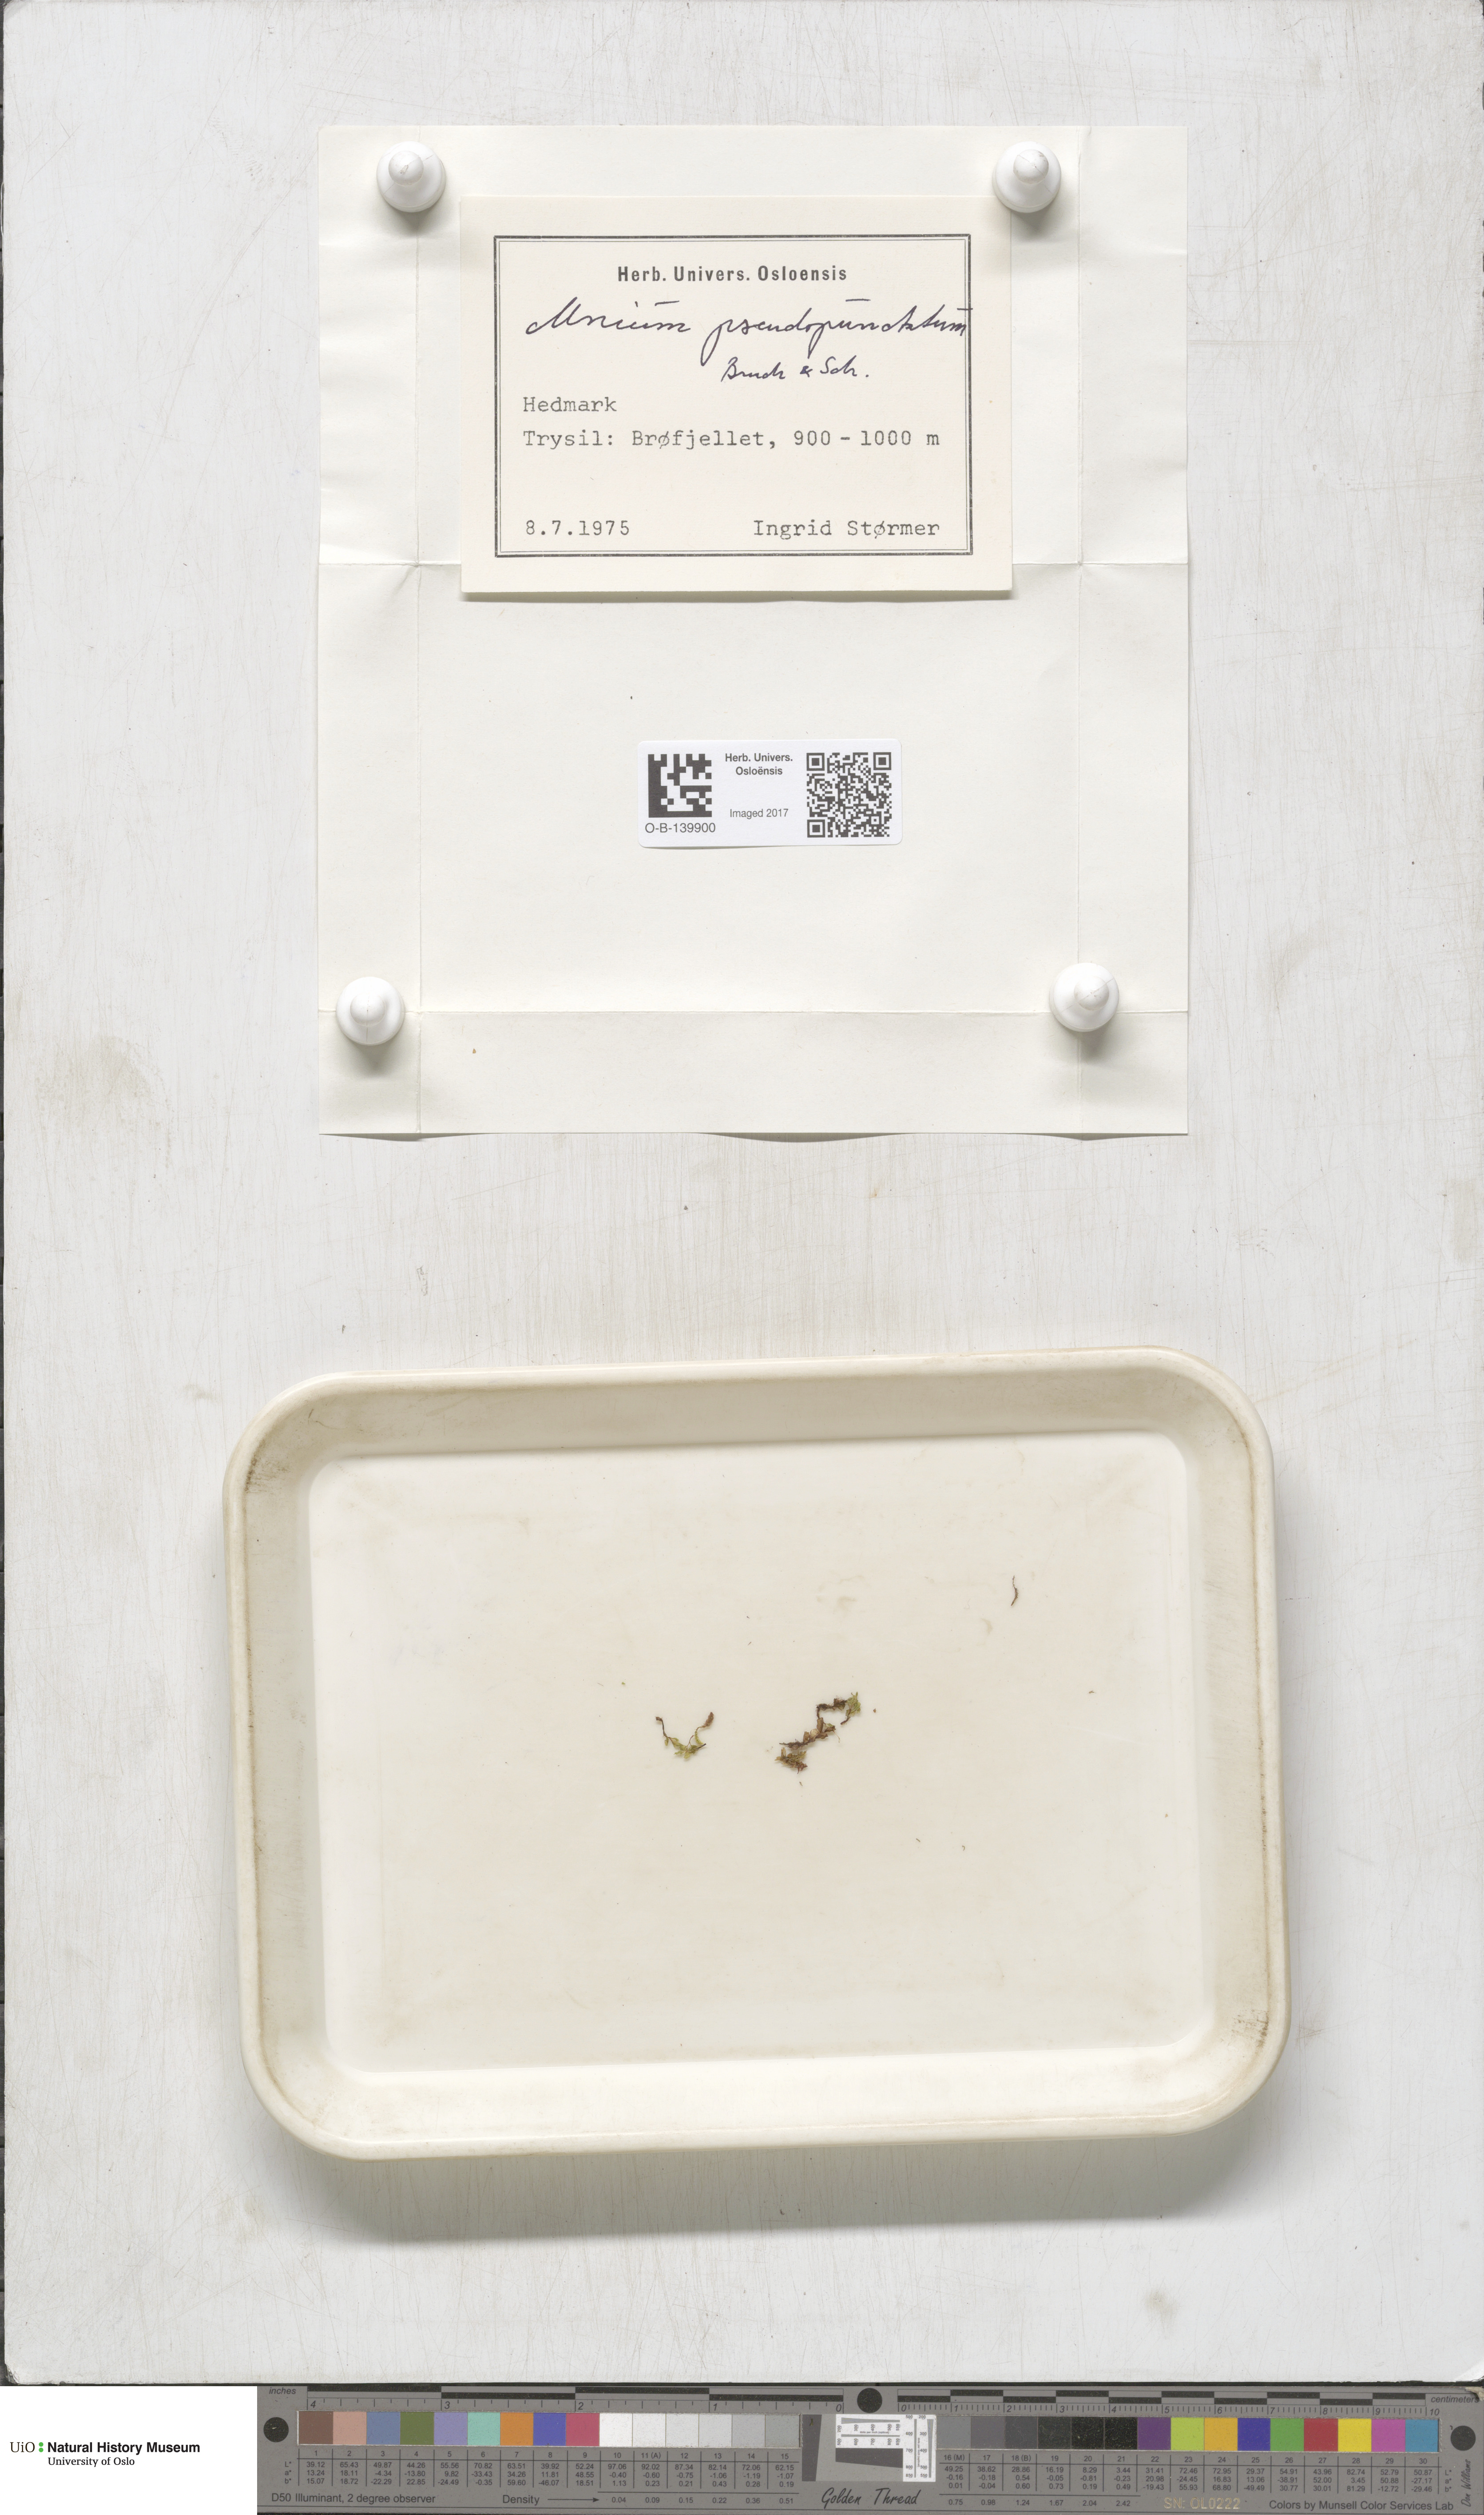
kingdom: Plantae
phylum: Bryophyta
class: Bryopsida
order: Bryales
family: Mniaceae
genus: Rhizomnium
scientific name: Rhizomnium pseudopunctatum
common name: Felted leafy moss
